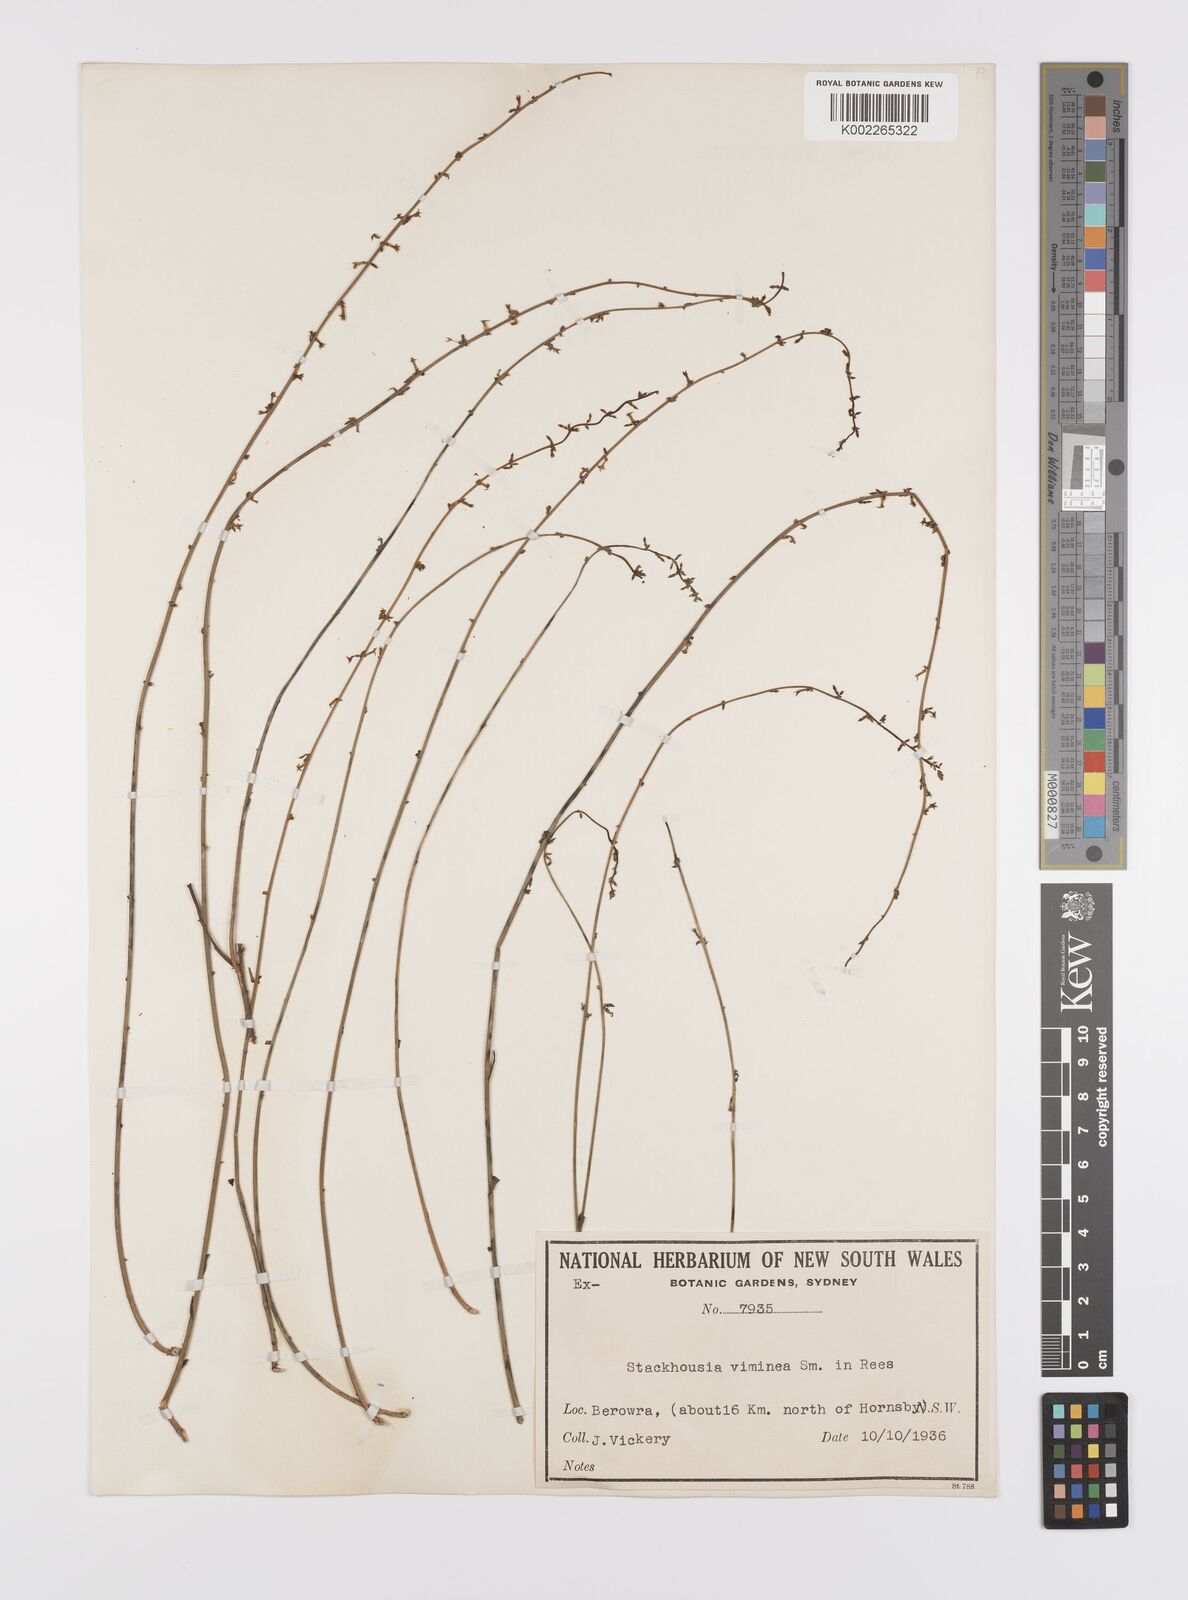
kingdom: Plantae
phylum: Tracheophyta
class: Magnoliopsida
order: Celastrales
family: Celastraceae
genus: Stackhousia
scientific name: Stackhousia viminea
